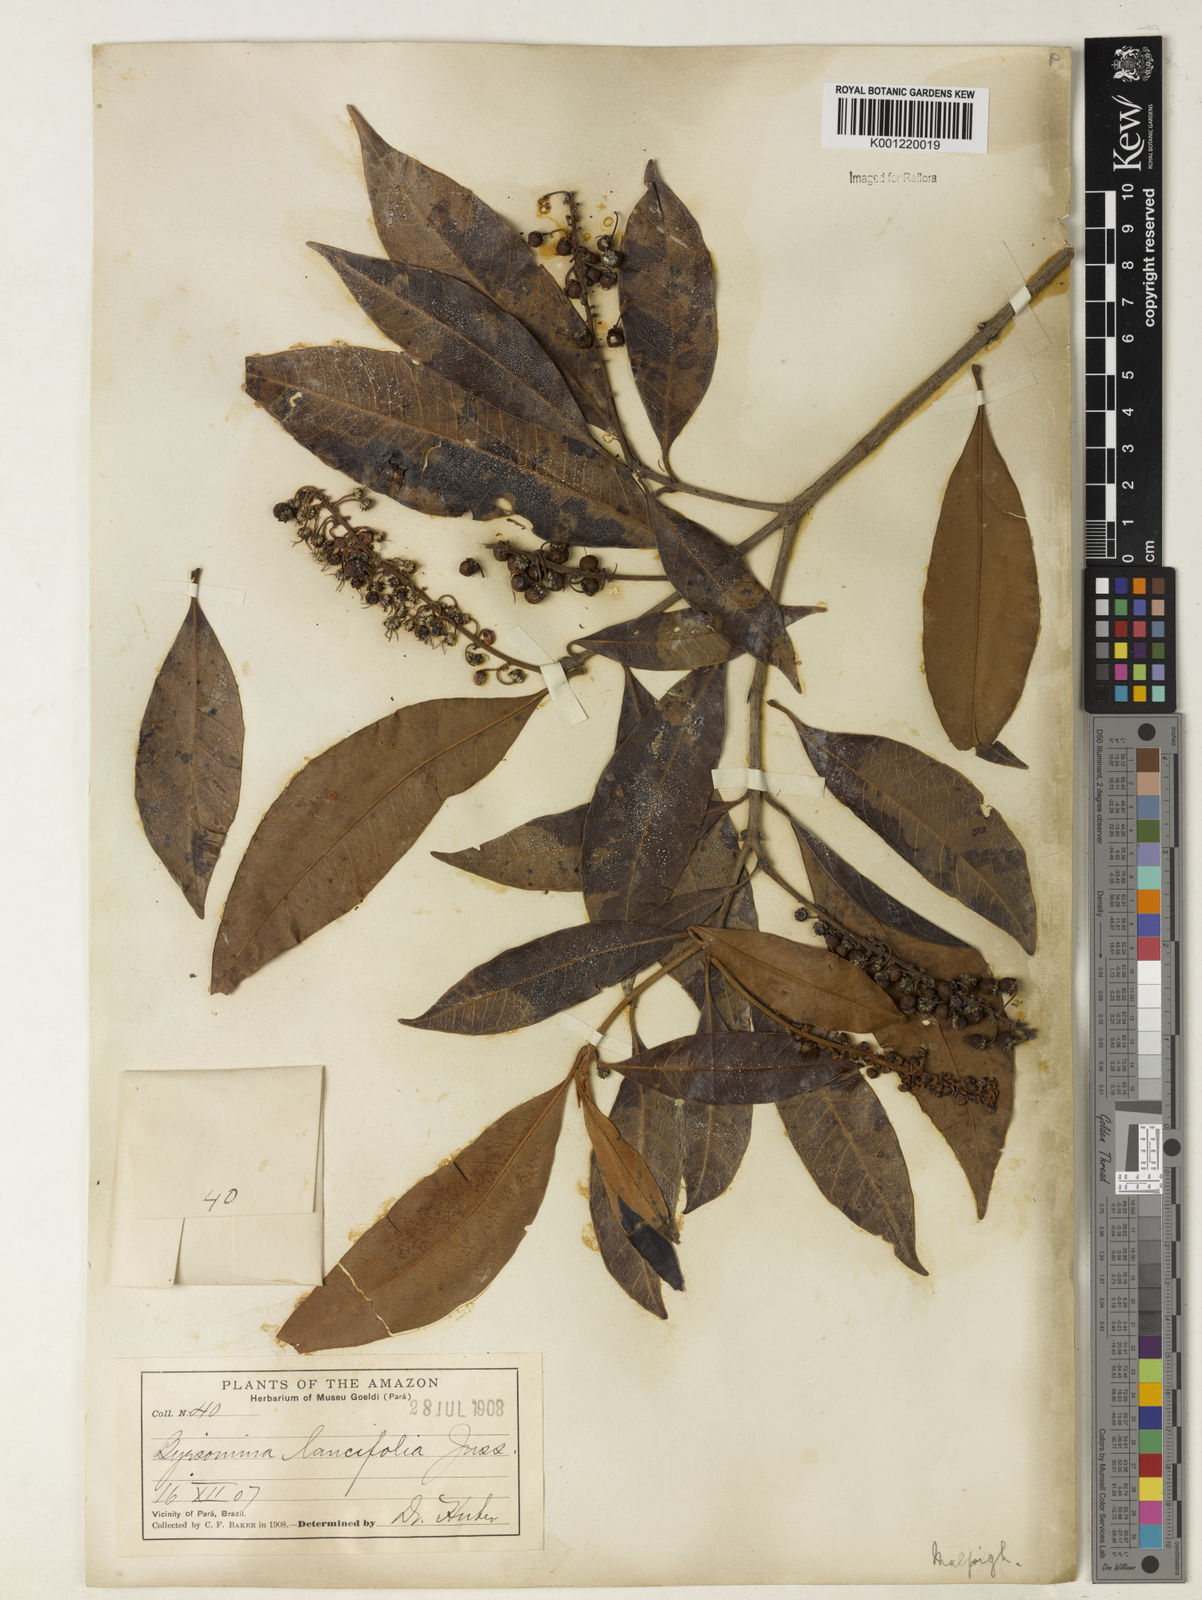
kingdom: Plantae
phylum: Tracheophyta
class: Magnoliopsida
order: Malpighiales
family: Malpighiaceae
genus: Byrsonima
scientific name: Byrsonima lancifolia
